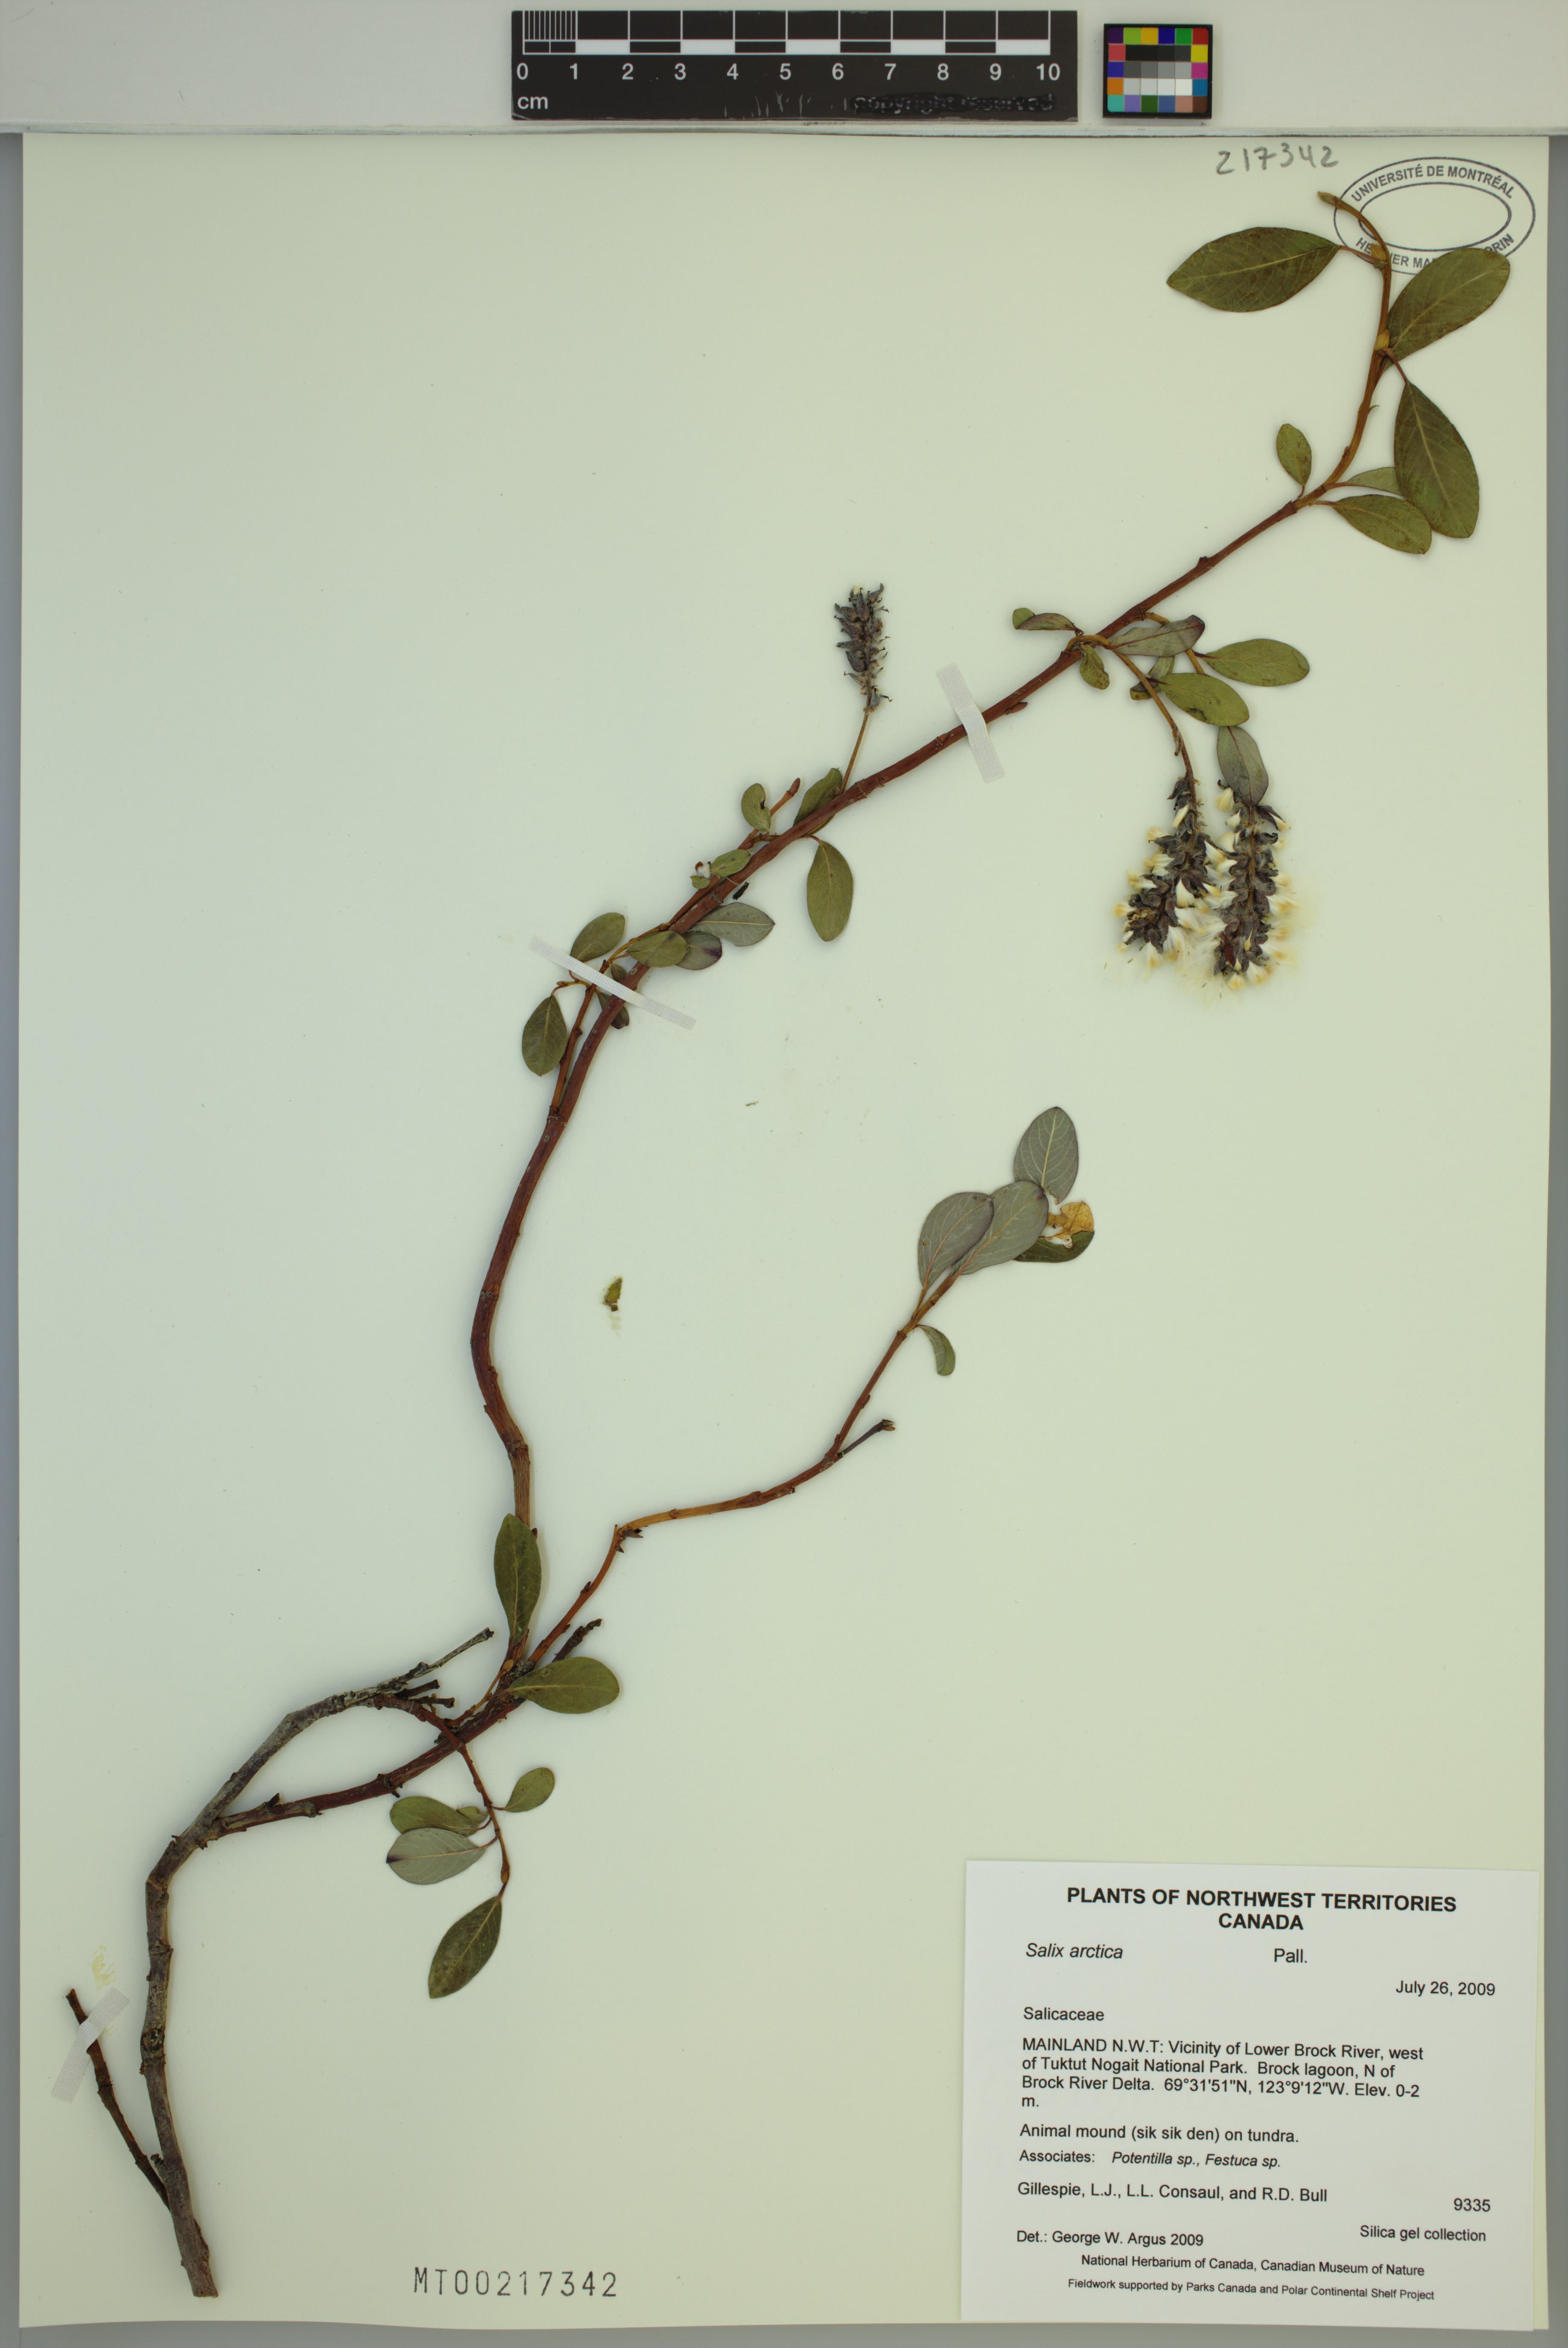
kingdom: Plantae
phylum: Tracheophyta
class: Magnoliopsida
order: Malpighiales
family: Salicaceae
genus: Salix
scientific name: Salix arctica
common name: Arctic willow
